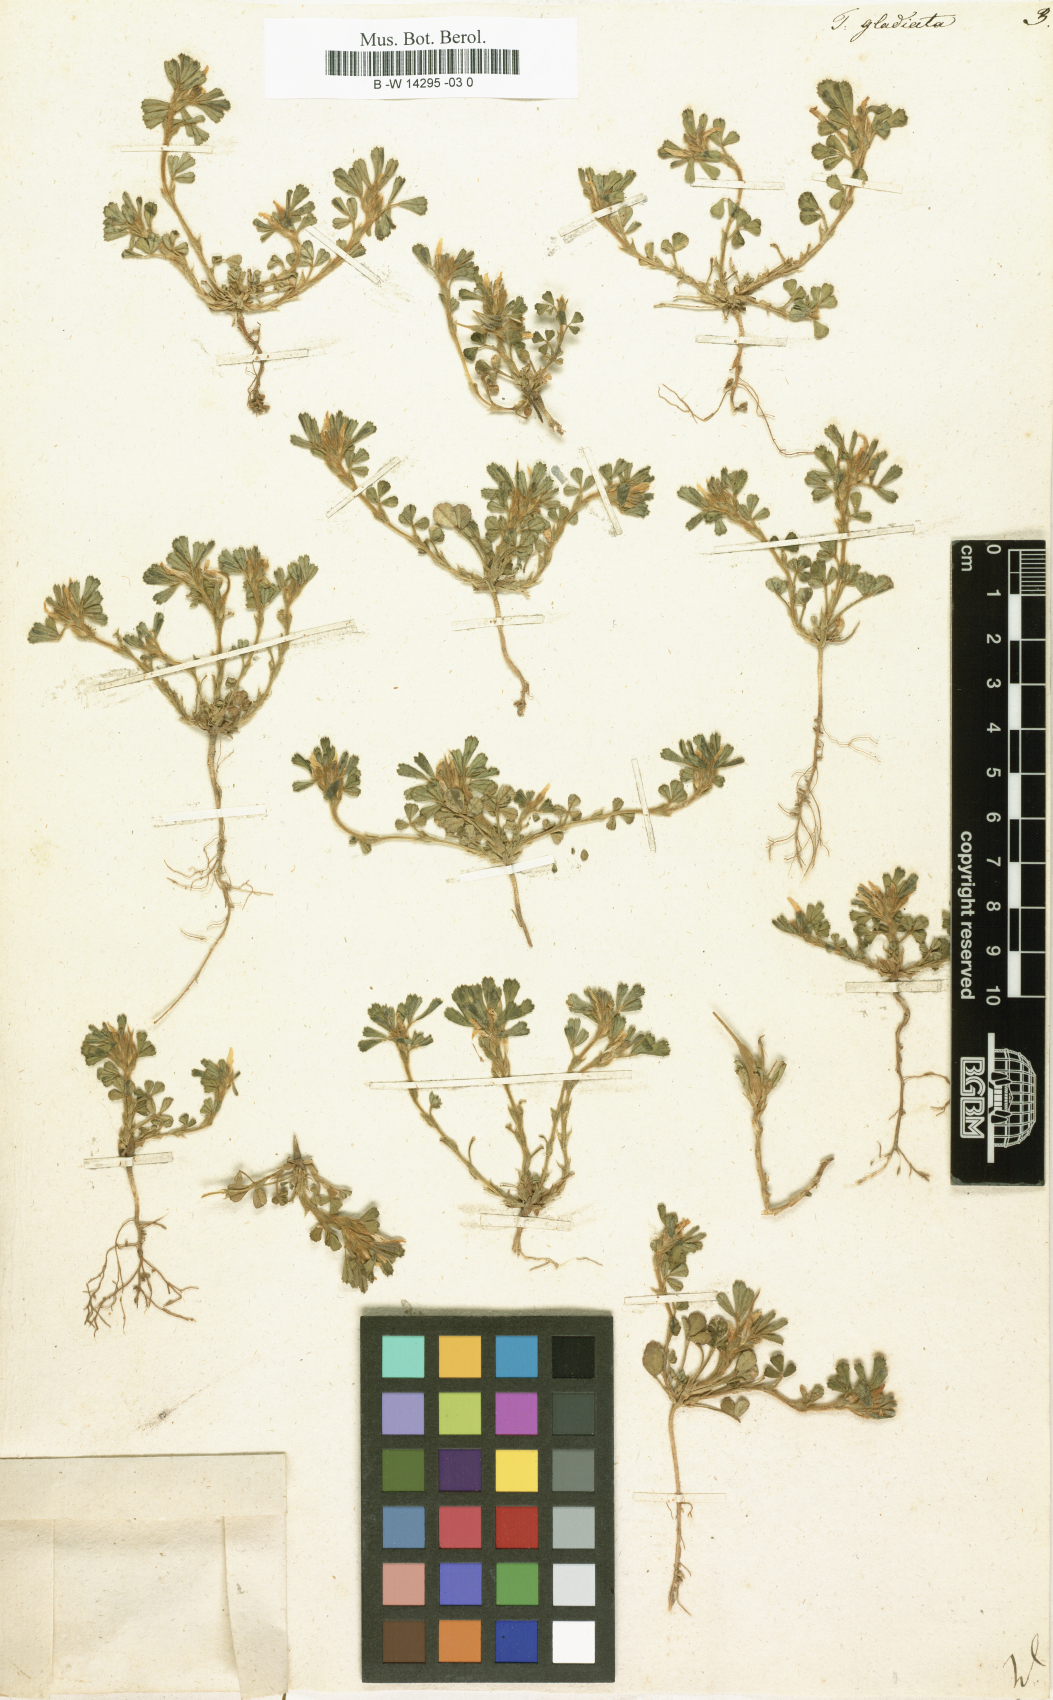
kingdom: Plantae
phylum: Tracheophyta
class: Magnoliopsida
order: Fabales
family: Fabaceae
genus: Trigonella
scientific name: Trigonella gladiata
